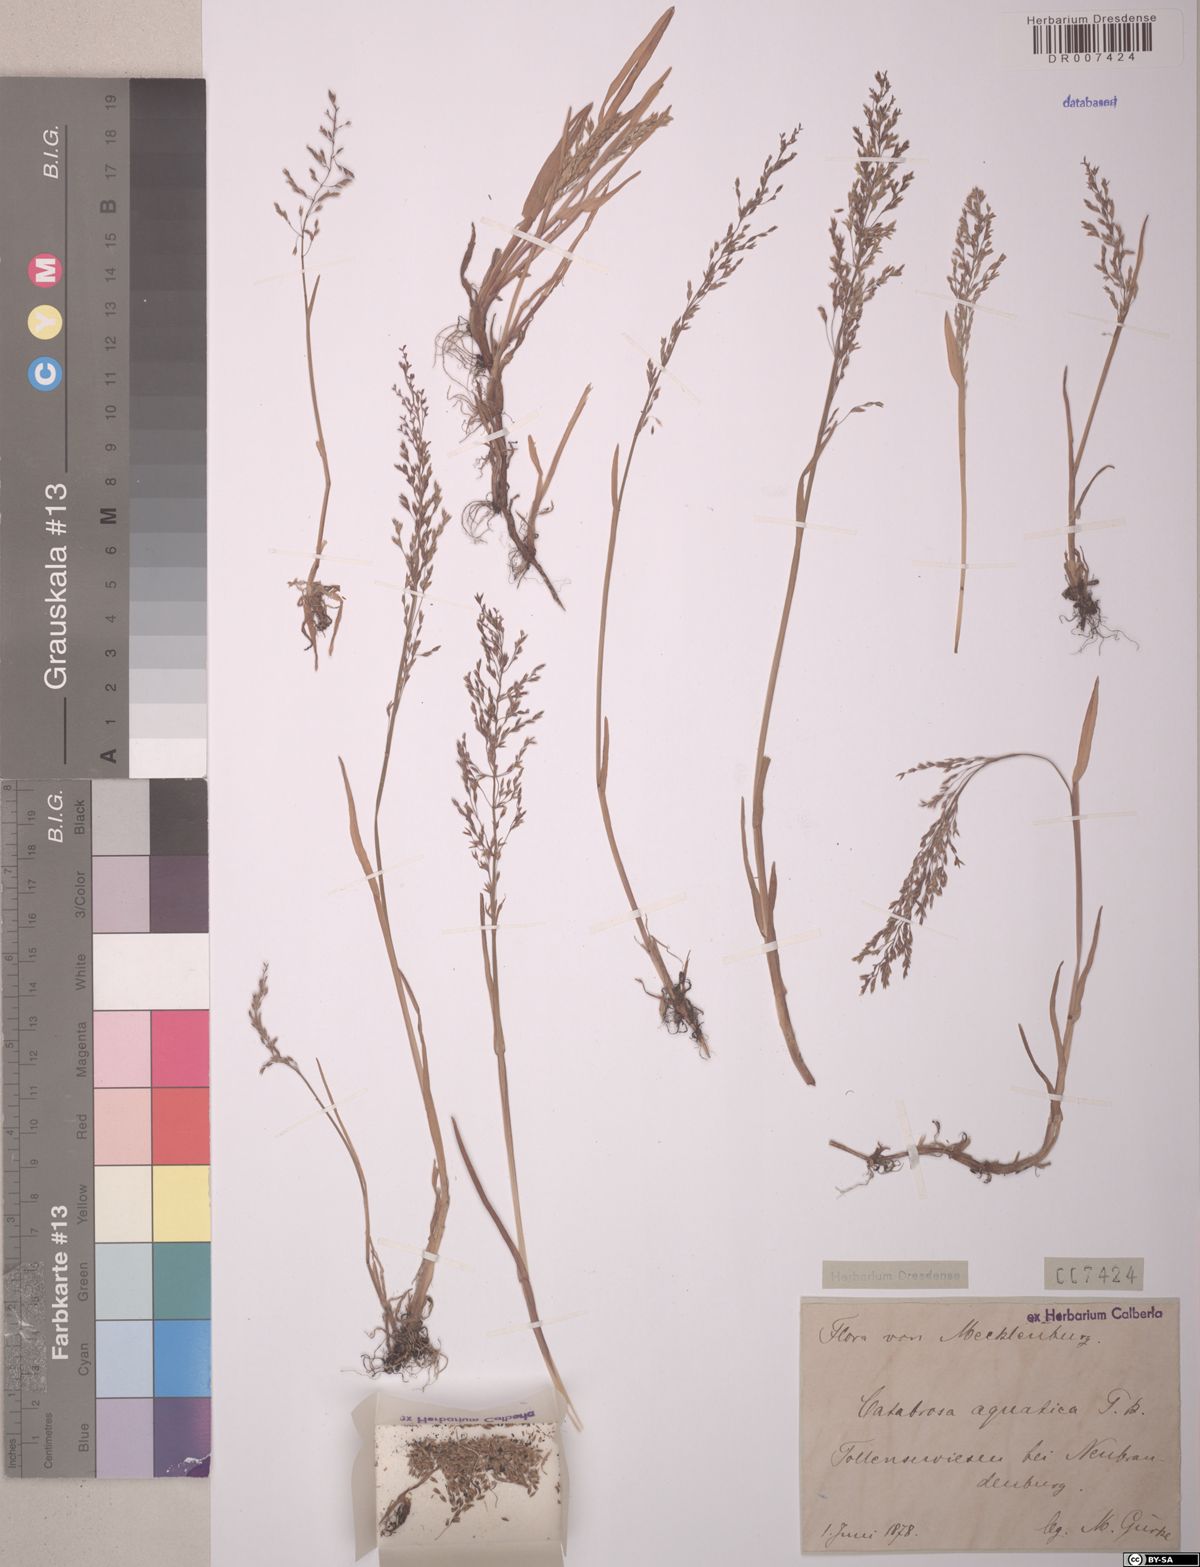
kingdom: Plantae
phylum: Tracheophyta
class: Liliopsida
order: Poales
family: Poaceae
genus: Catabrosa
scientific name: Catabrosa aquatica
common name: Whorl-grass
